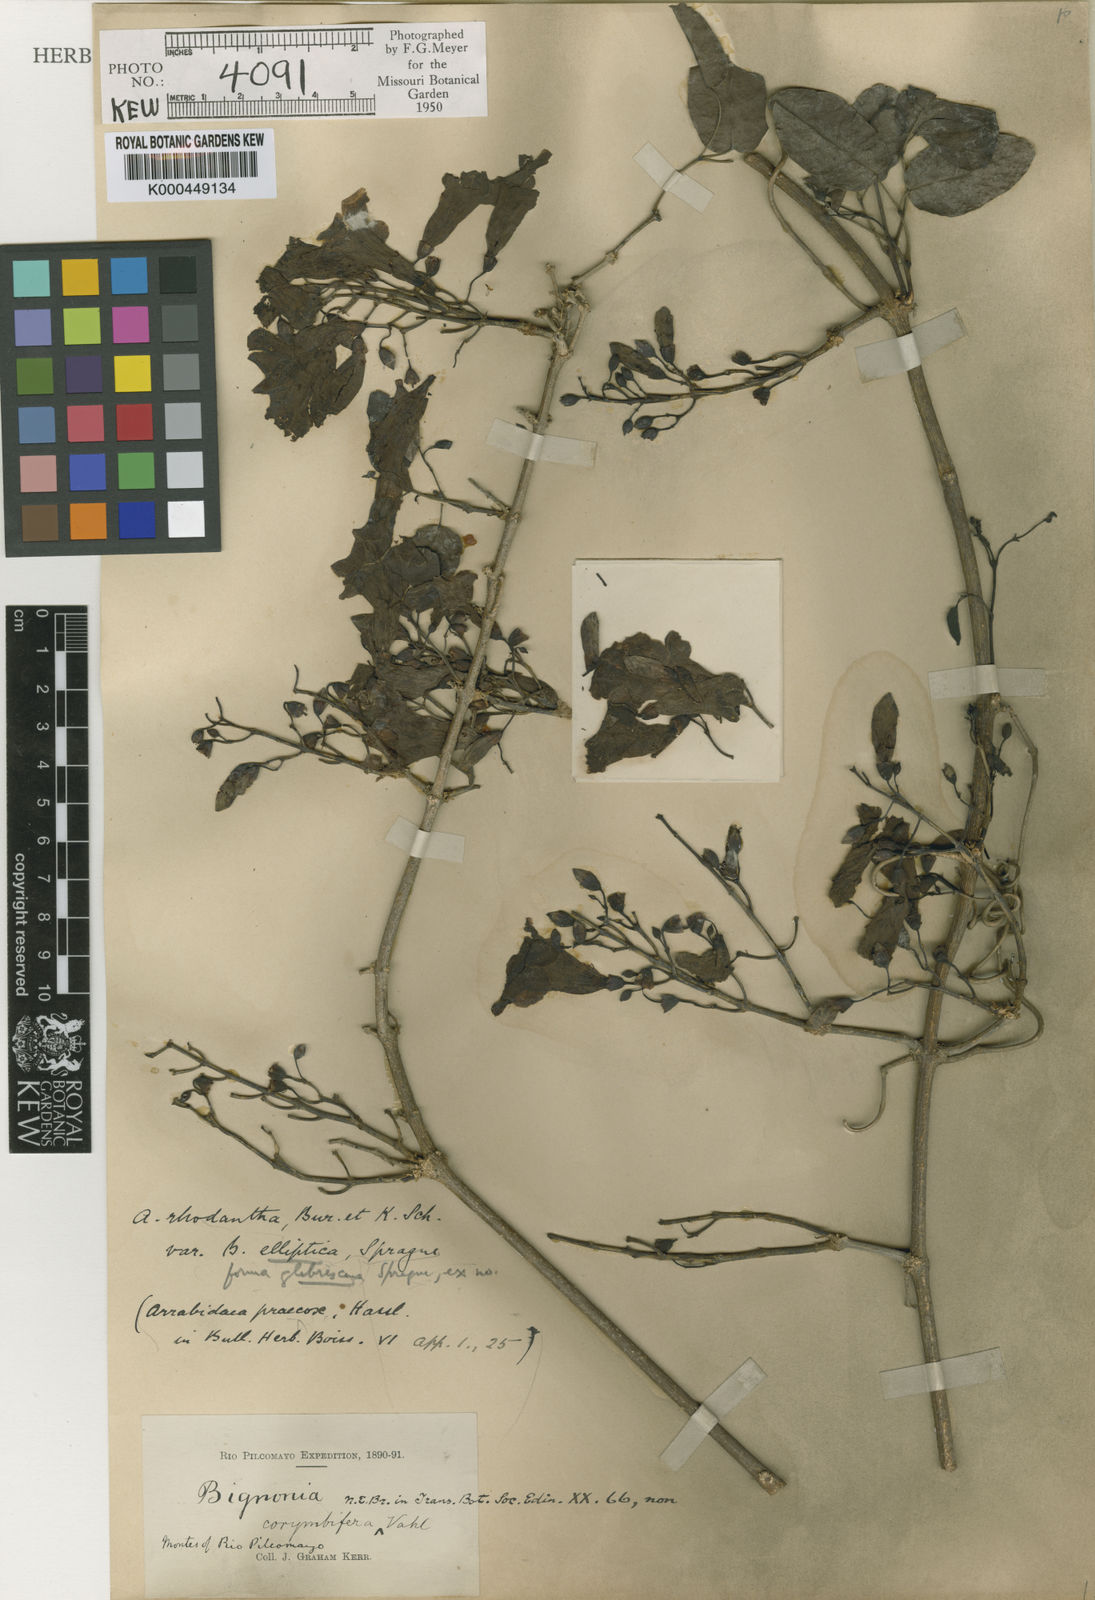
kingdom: Plantae
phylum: Tracheophyta
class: Magnoliopsida
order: Lamiales
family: Bignoniaceae
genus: Tanaecium
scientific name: Tanaecium dichotomum
